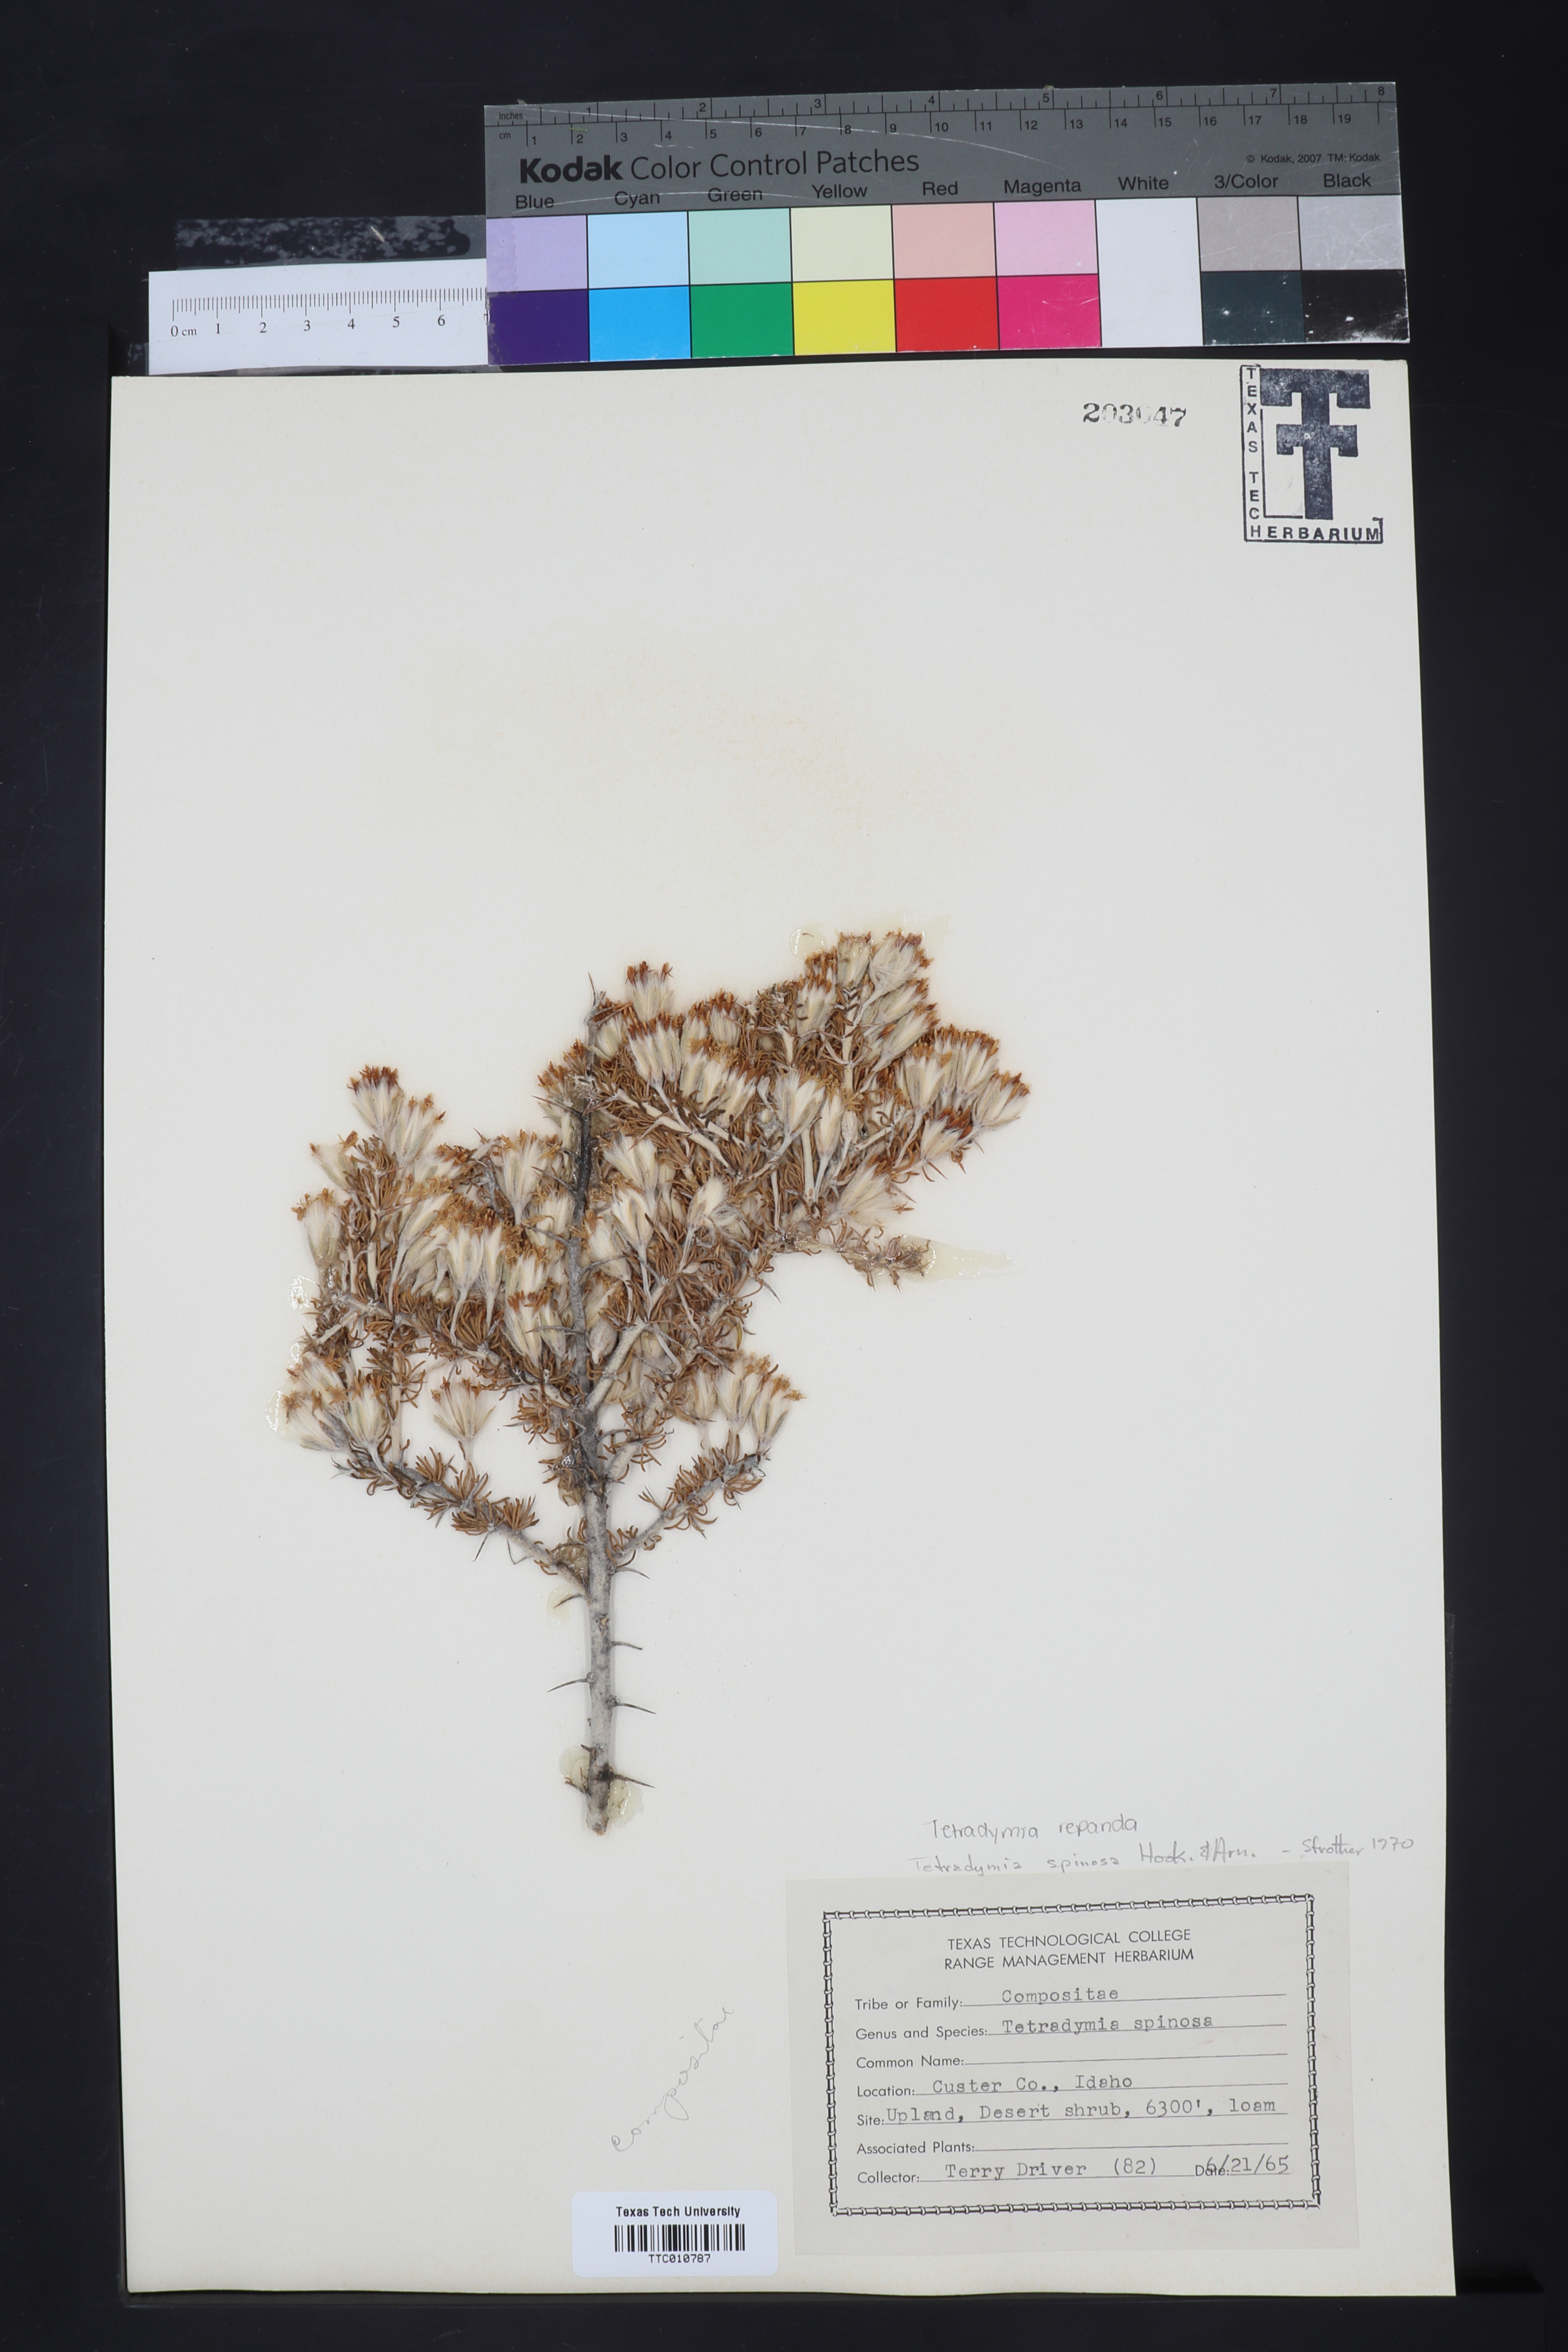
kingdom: Plantae
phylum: Tracheophyta
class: Magnoliopsida
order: Asterales
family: Asteraceae
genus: Tetradymia
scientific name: Tetradymia spinosa
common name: Thorny horsebrush
